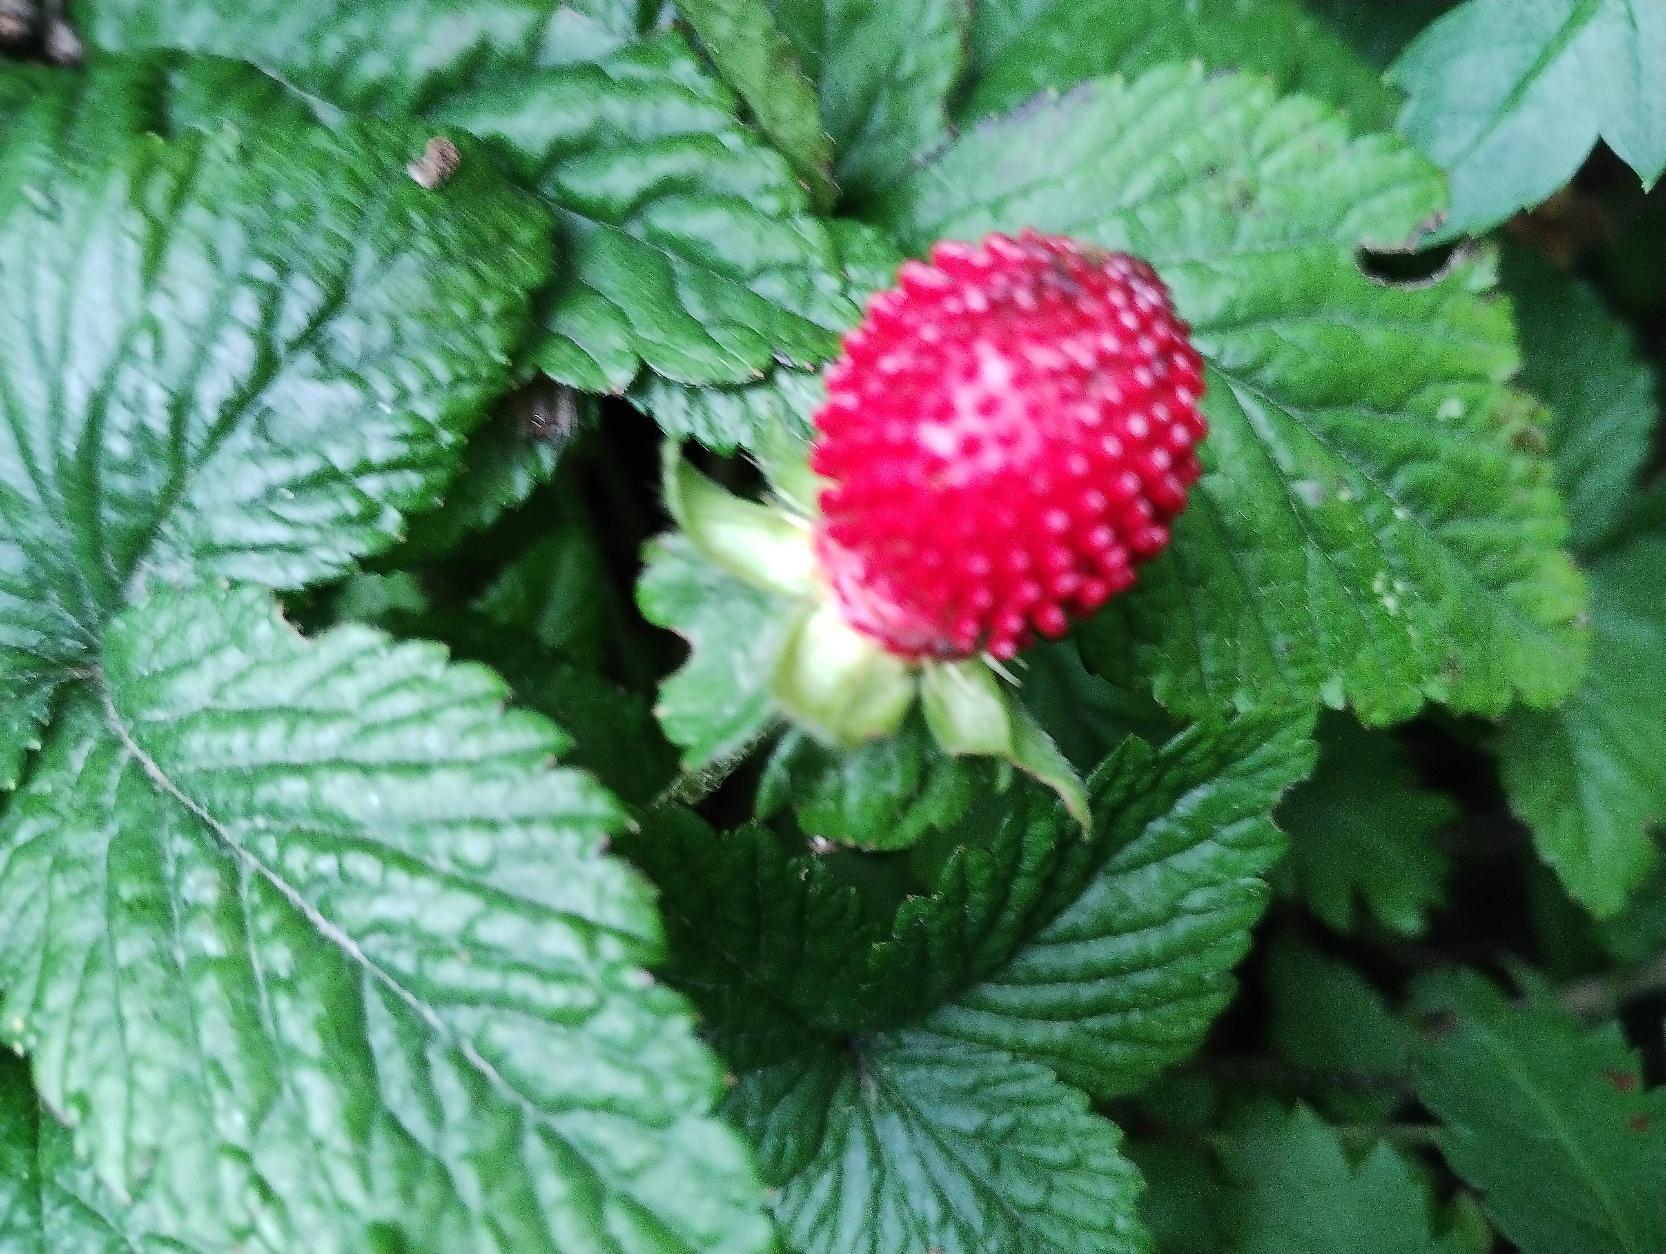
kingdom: Plantae
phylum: Tracheophyta
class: Magnoliopsida
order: Rosales
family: Rosaceae
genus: Potentilla
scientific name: Potentilla indica
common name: Indisk jordbær
